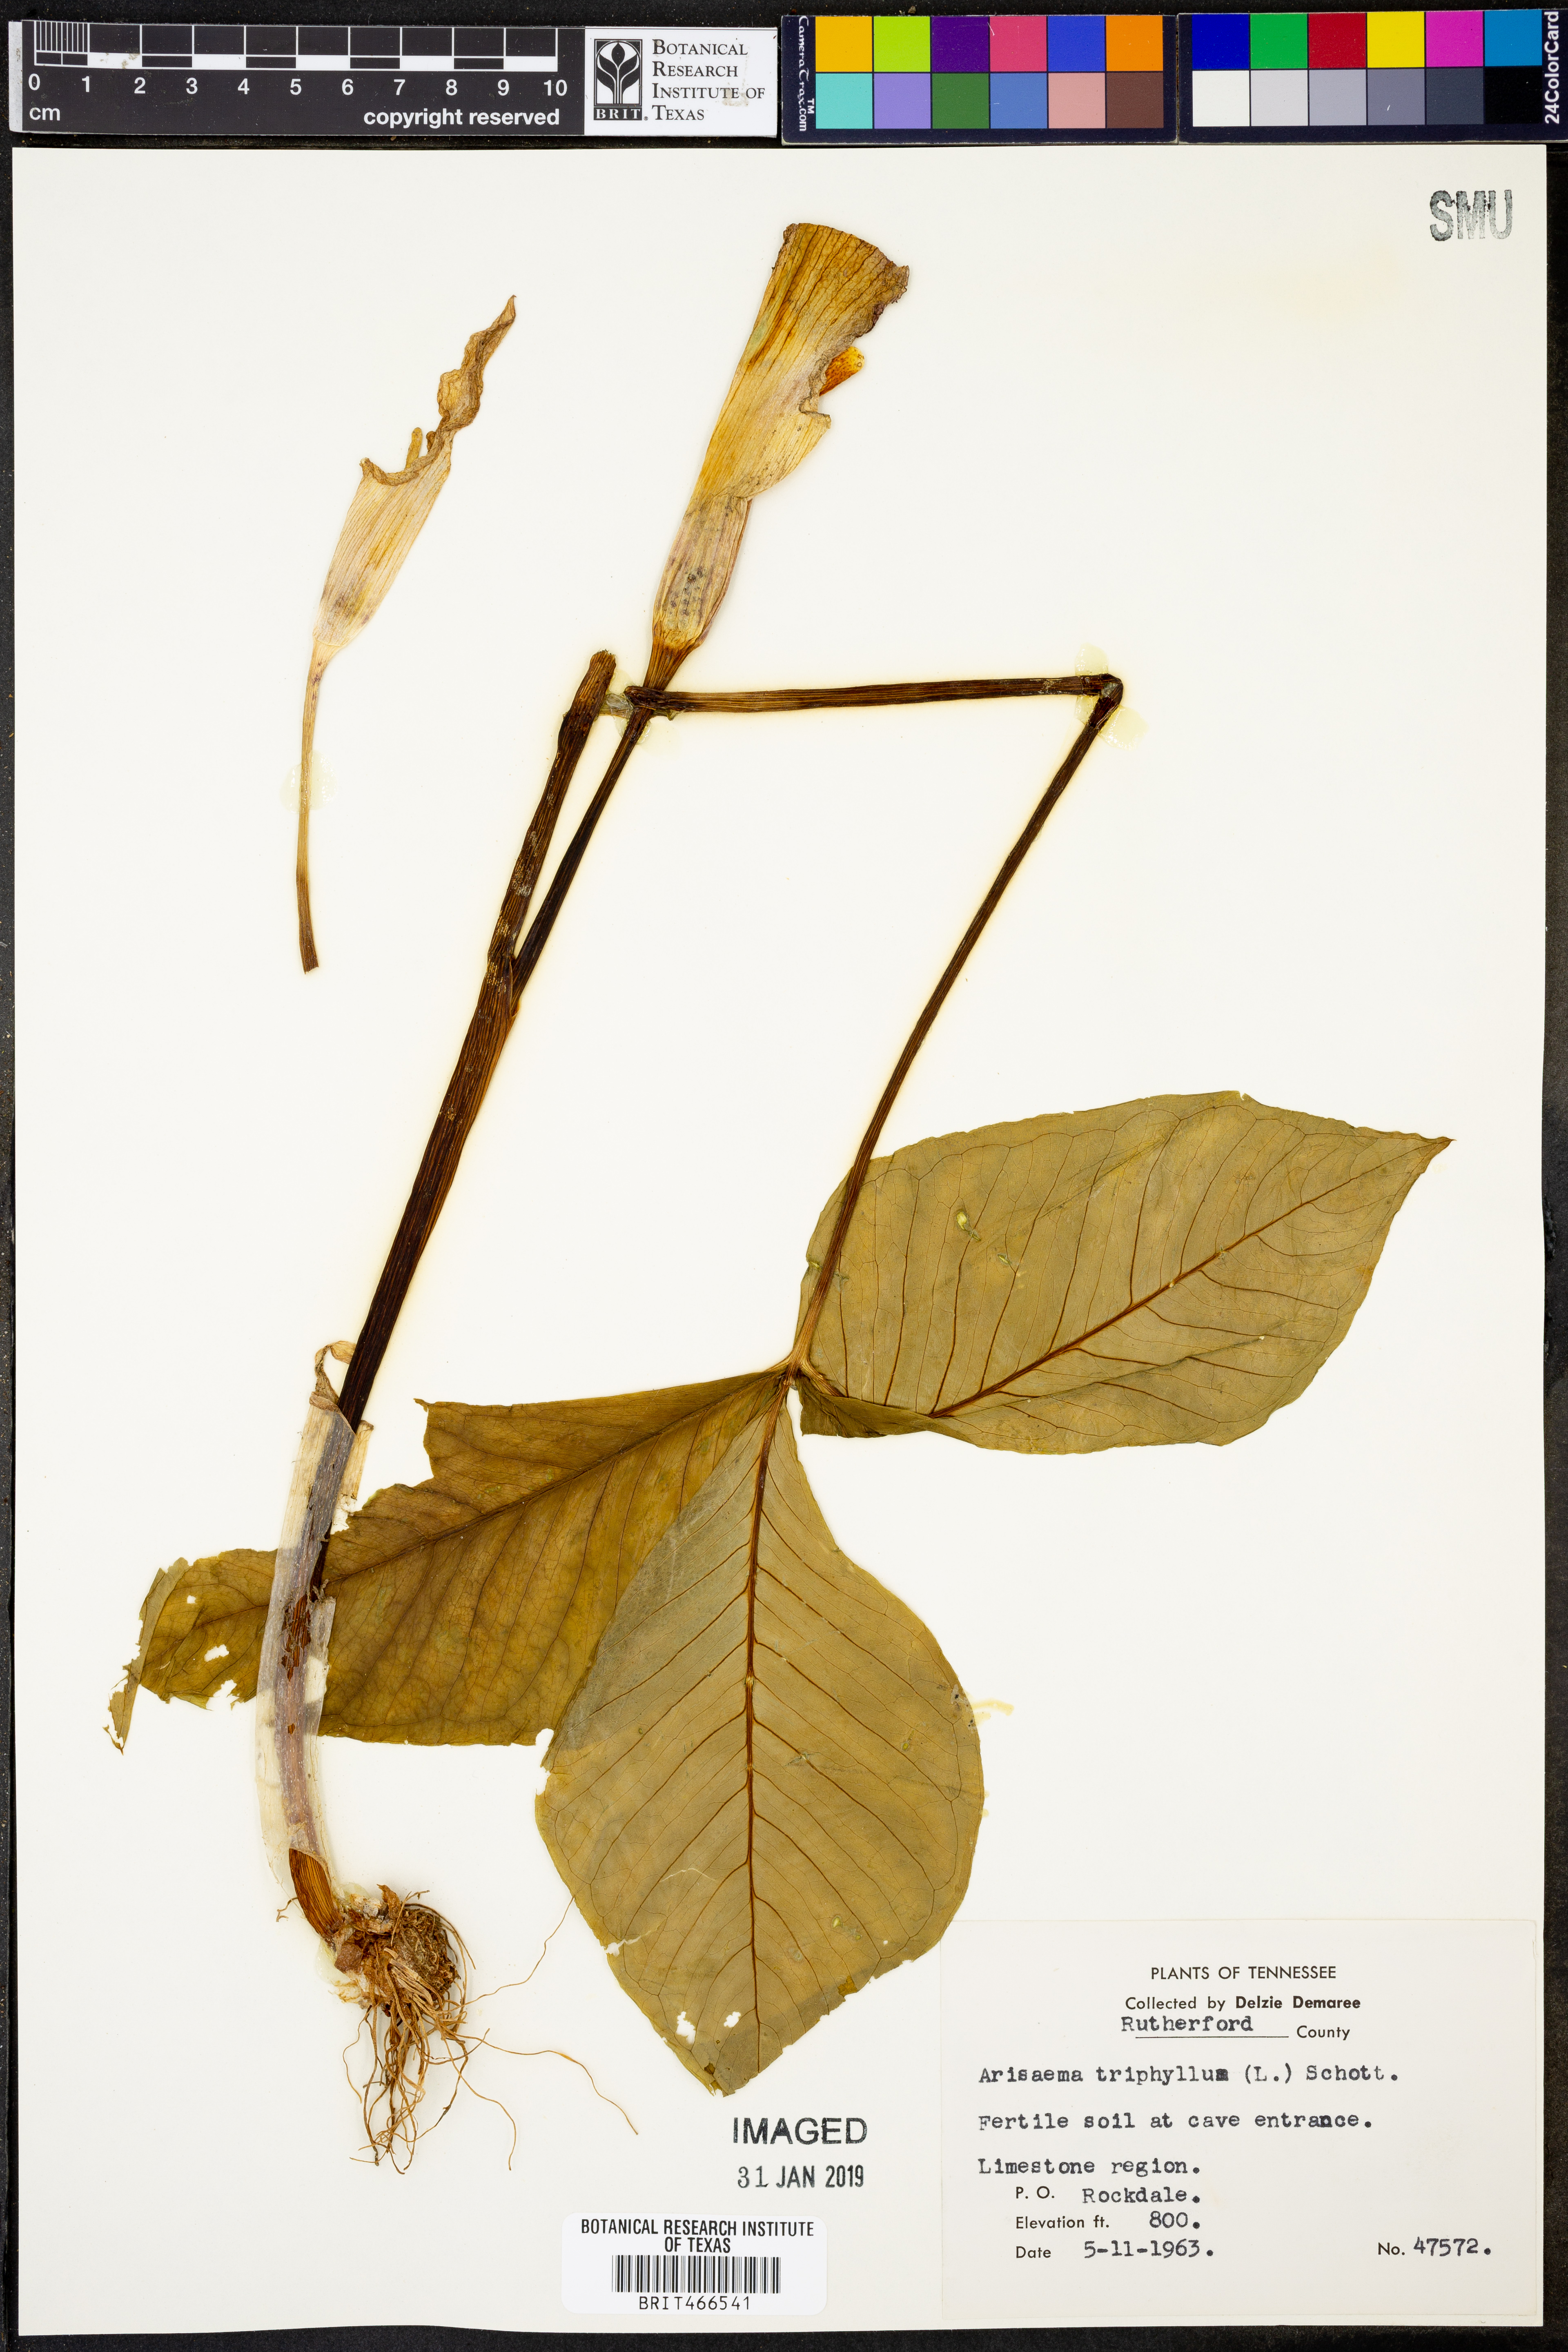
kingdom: Plantae
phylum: Tracheophyta
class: Liliopsida
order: Alismatales
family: Araceae
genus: Arisaema
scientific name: Arisaema triphyllum
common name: Jack-in-the-pulpit
